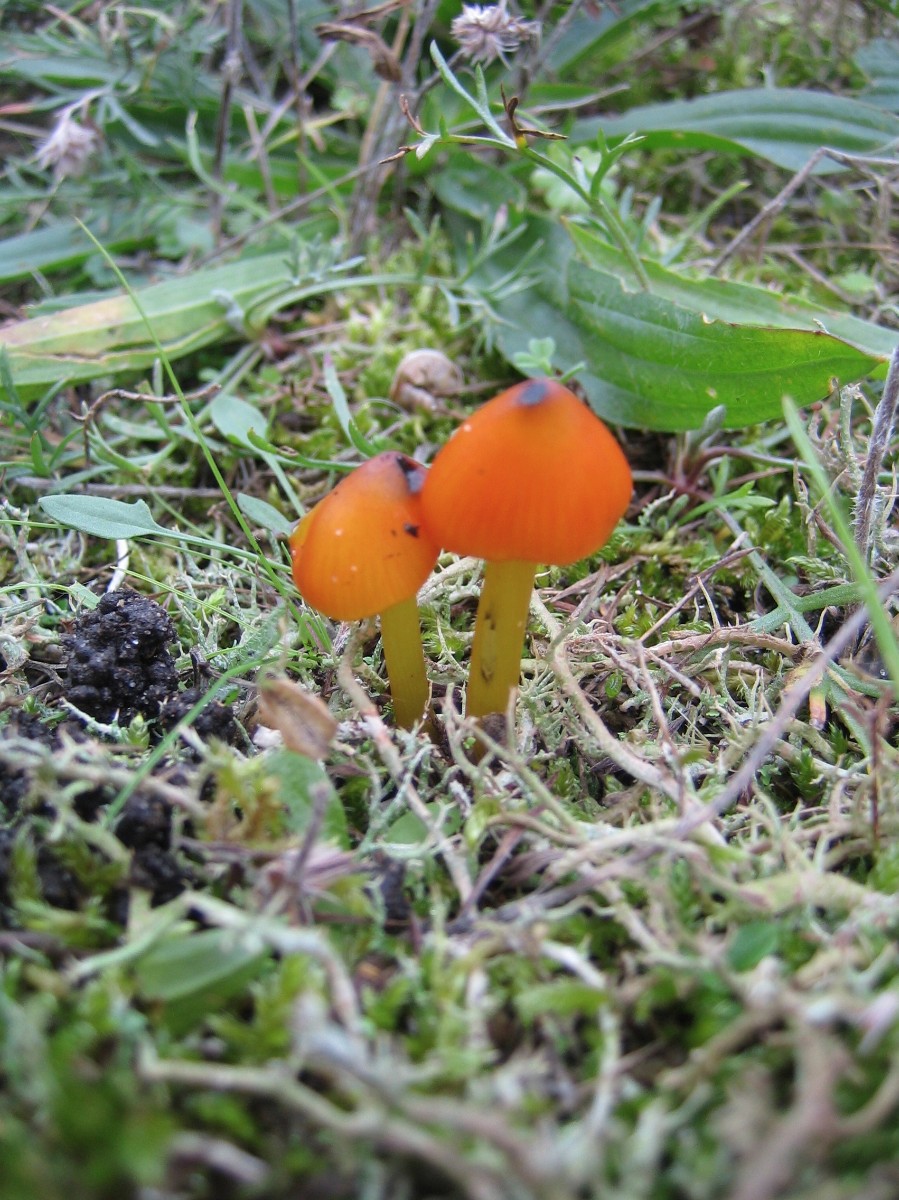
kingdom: Fungi
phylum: Basidiomycota
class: Agaricomycetes
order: Agaricales
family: Hygrophoraceae
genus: Hygrocybe
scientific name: Hygrocybe conica
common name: kegle-vokshat
